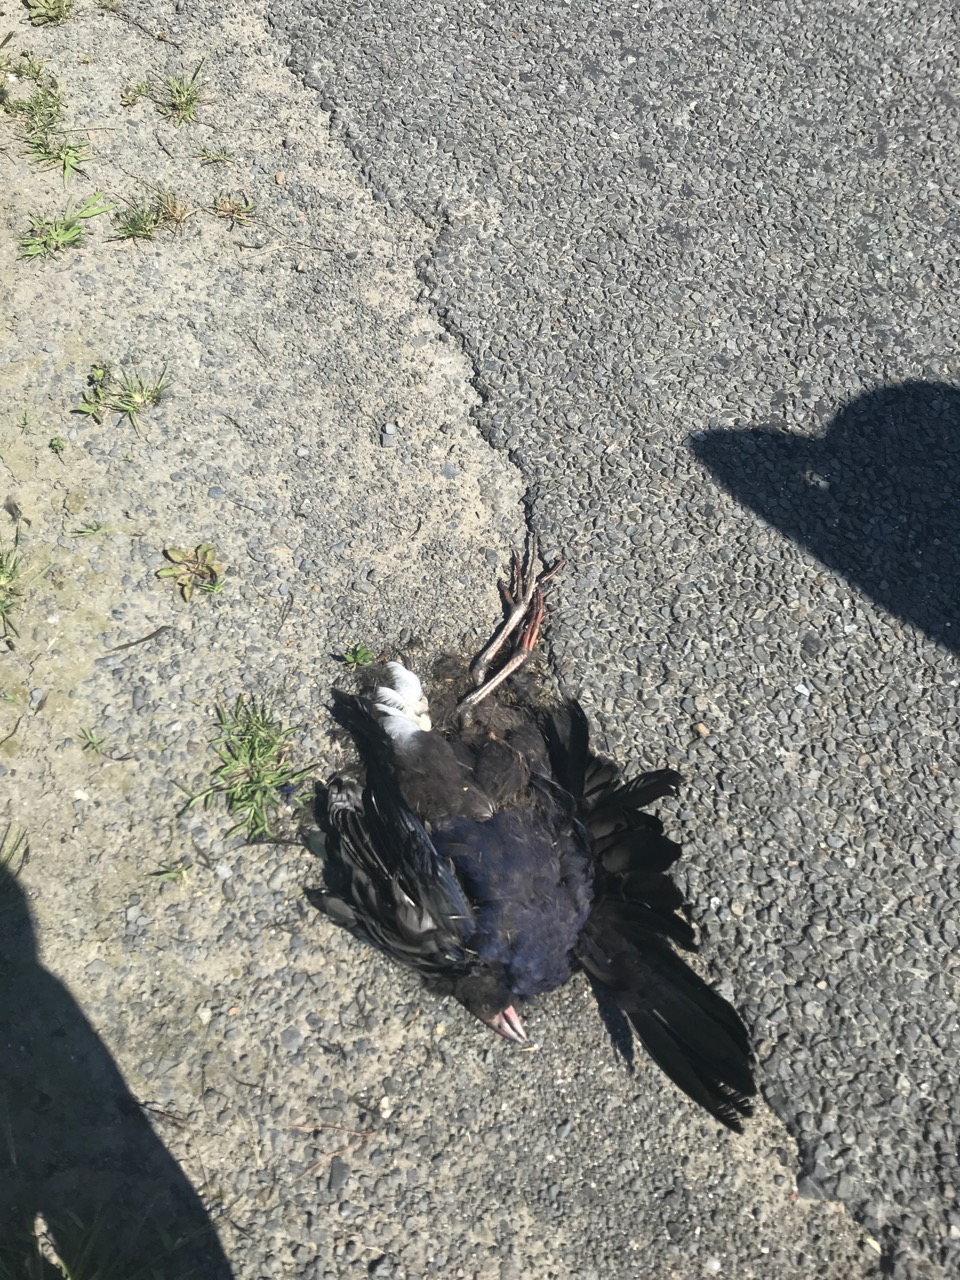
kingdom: Animalia
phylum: Chordata
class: Aves
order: Gruiformes
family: Rallidae
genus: Porphyrio
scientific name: Porphyrio melanotus
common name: Australasian swamphen
